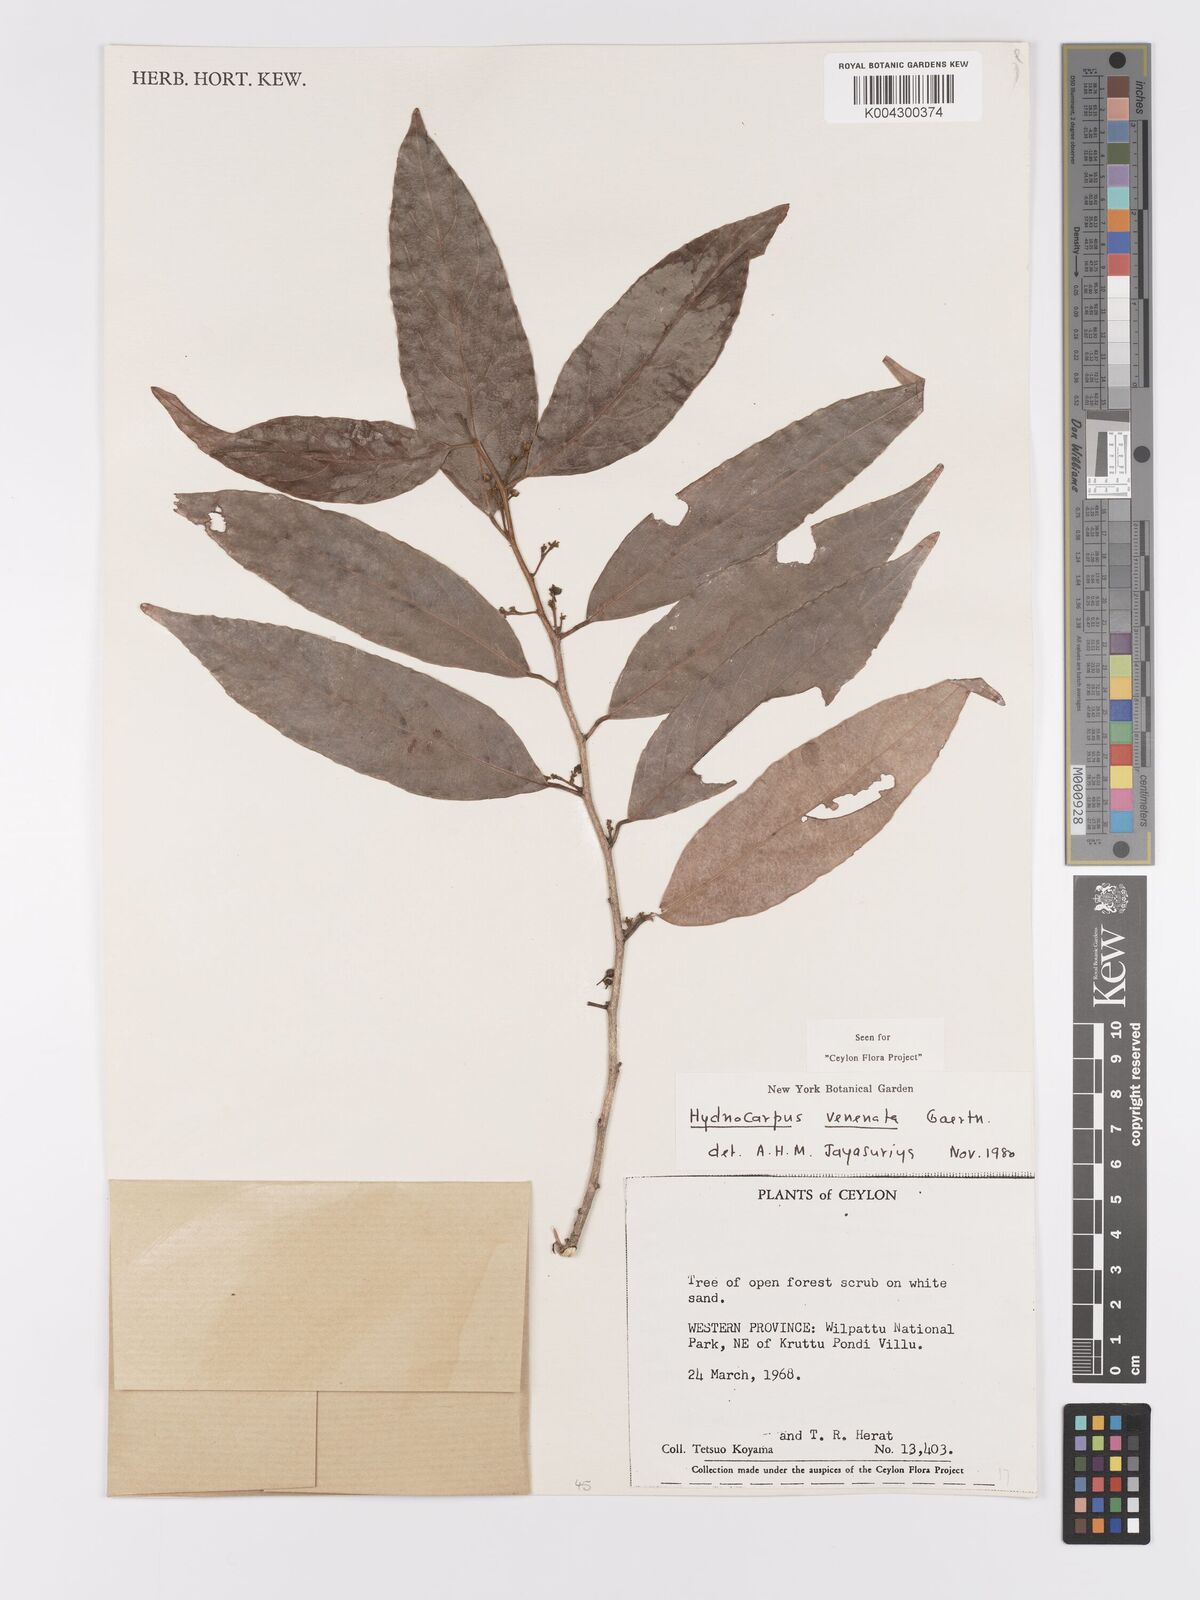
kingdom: Plantae
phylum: Tracheophyta
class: Magnoliopsida
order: Malpighiales
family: Achariaceae
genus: Hydnocarpus
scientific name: Hydnocarpus venenatus
